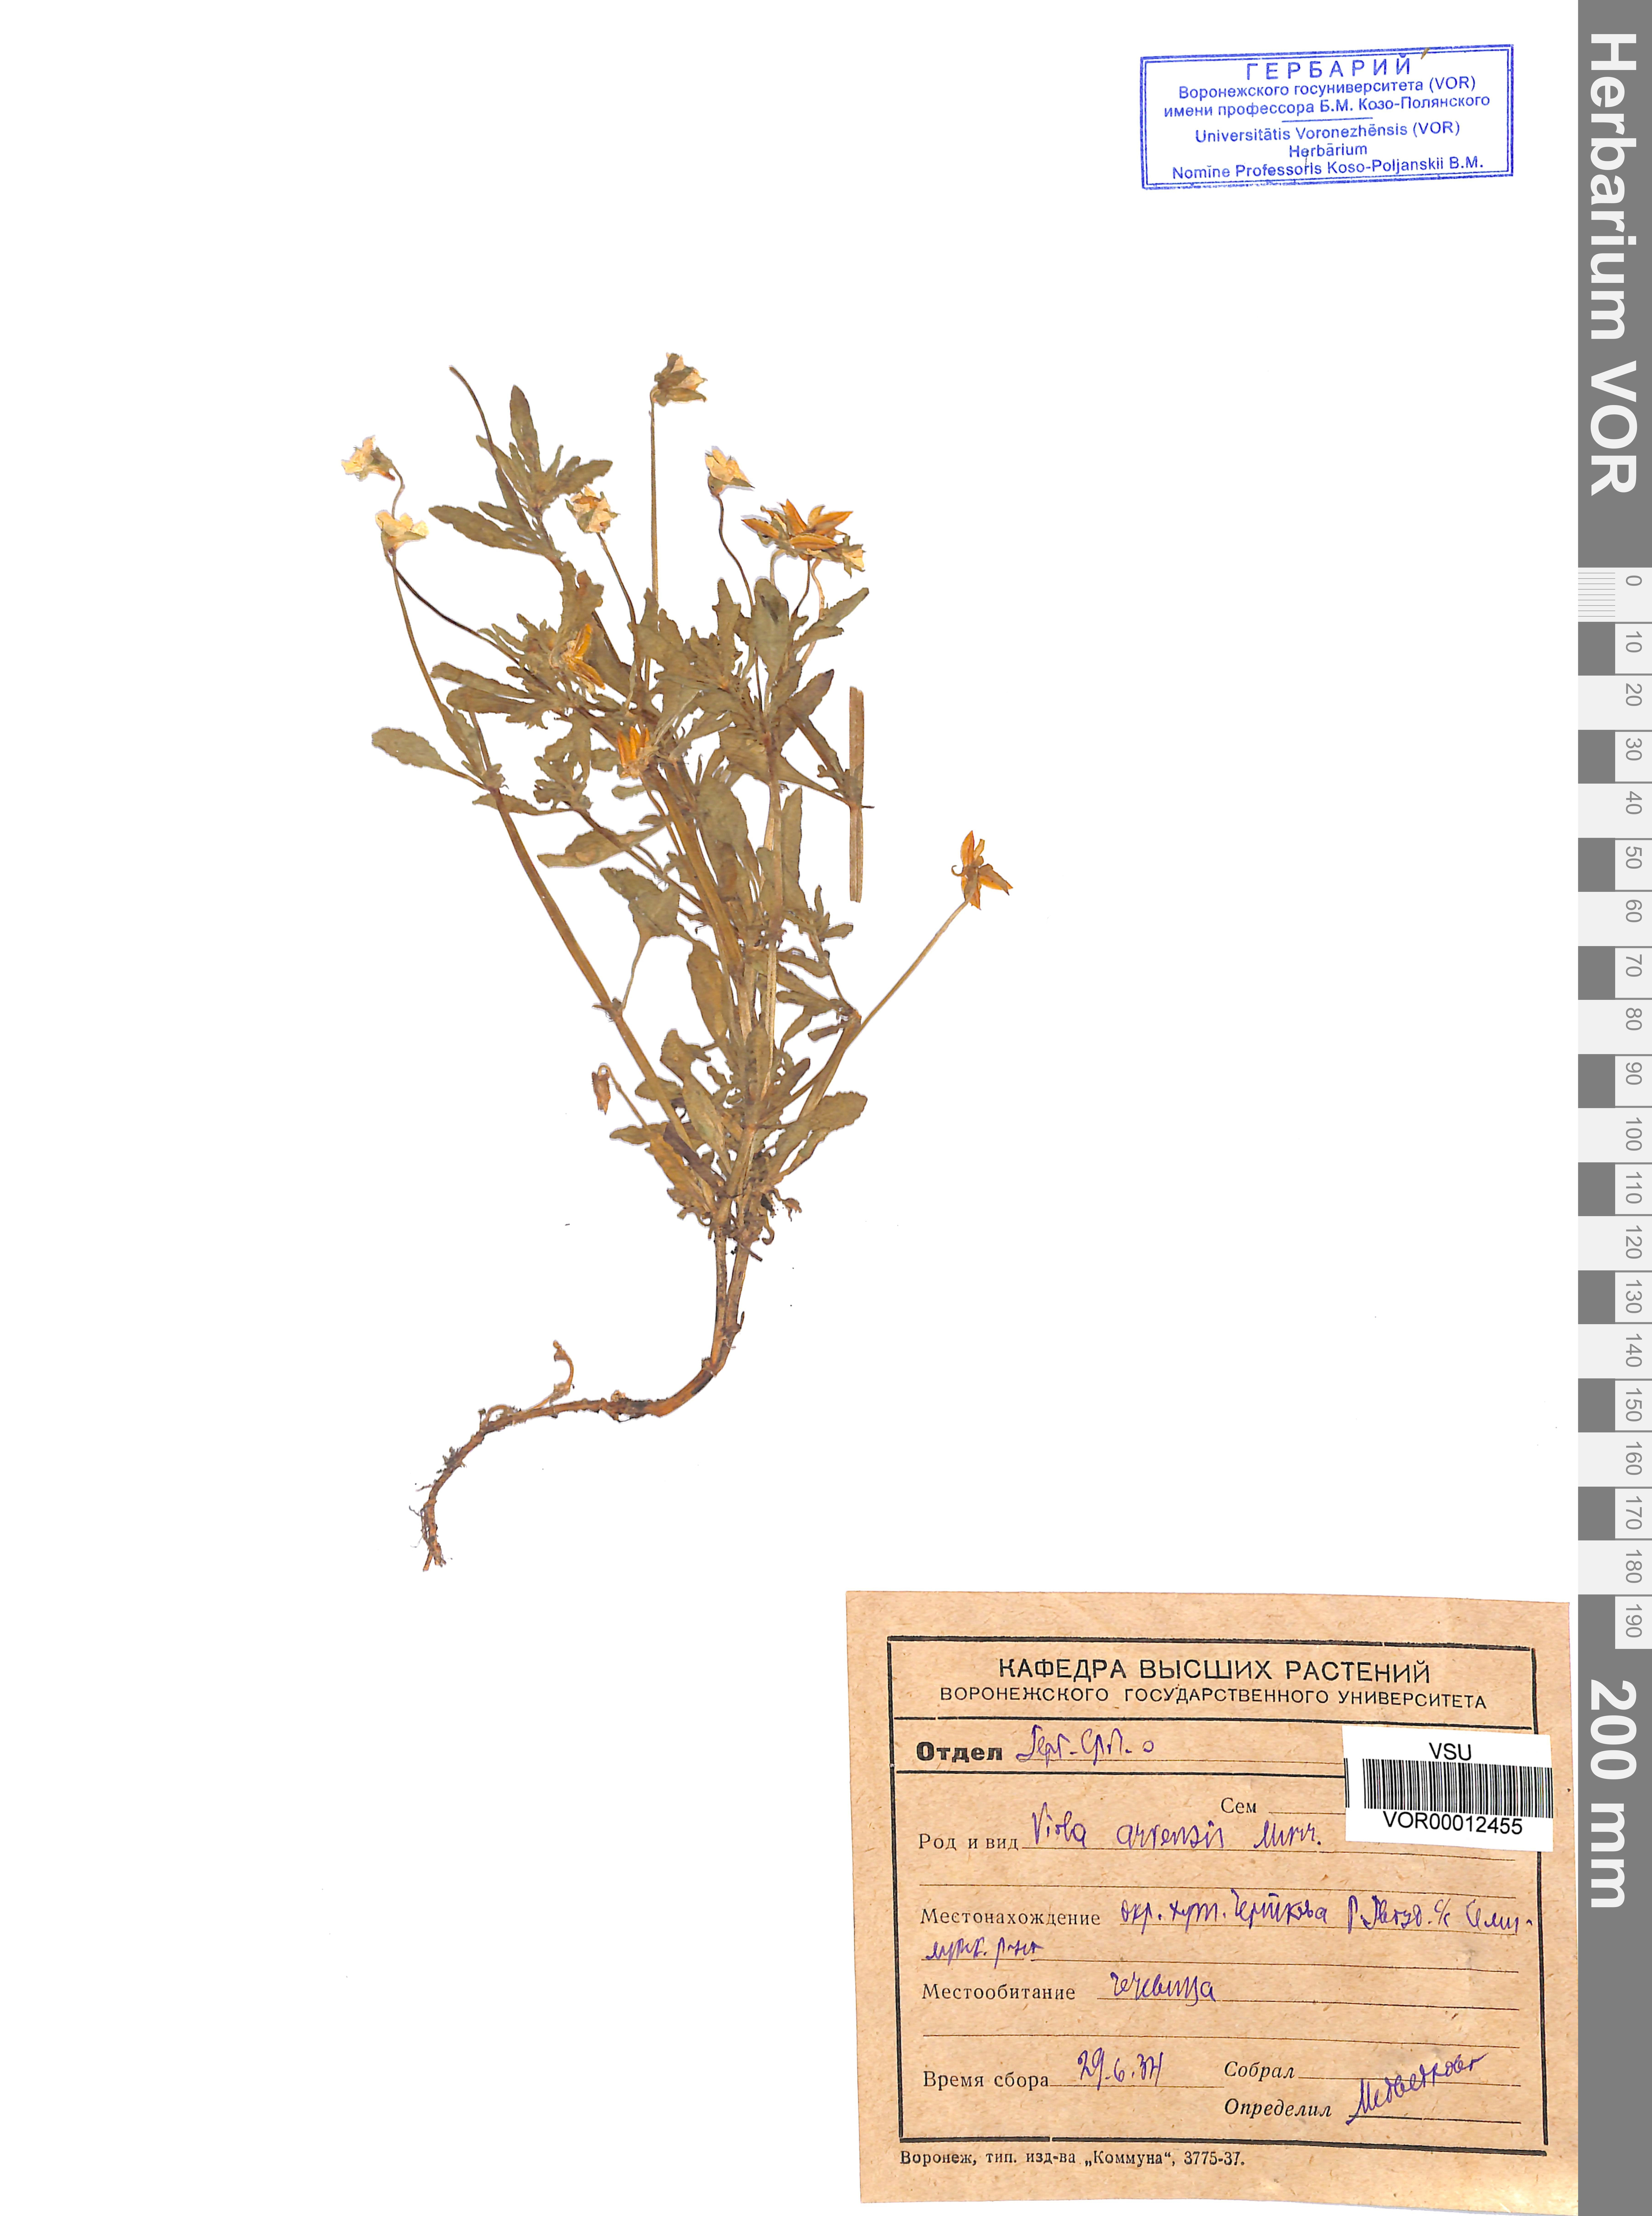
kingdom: Plantae
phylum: Tracheophyta
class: Magnoliopsida
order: Malpighiales
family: Violaceae
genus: Viola
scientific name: Viola arvensis
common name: Field pansy
